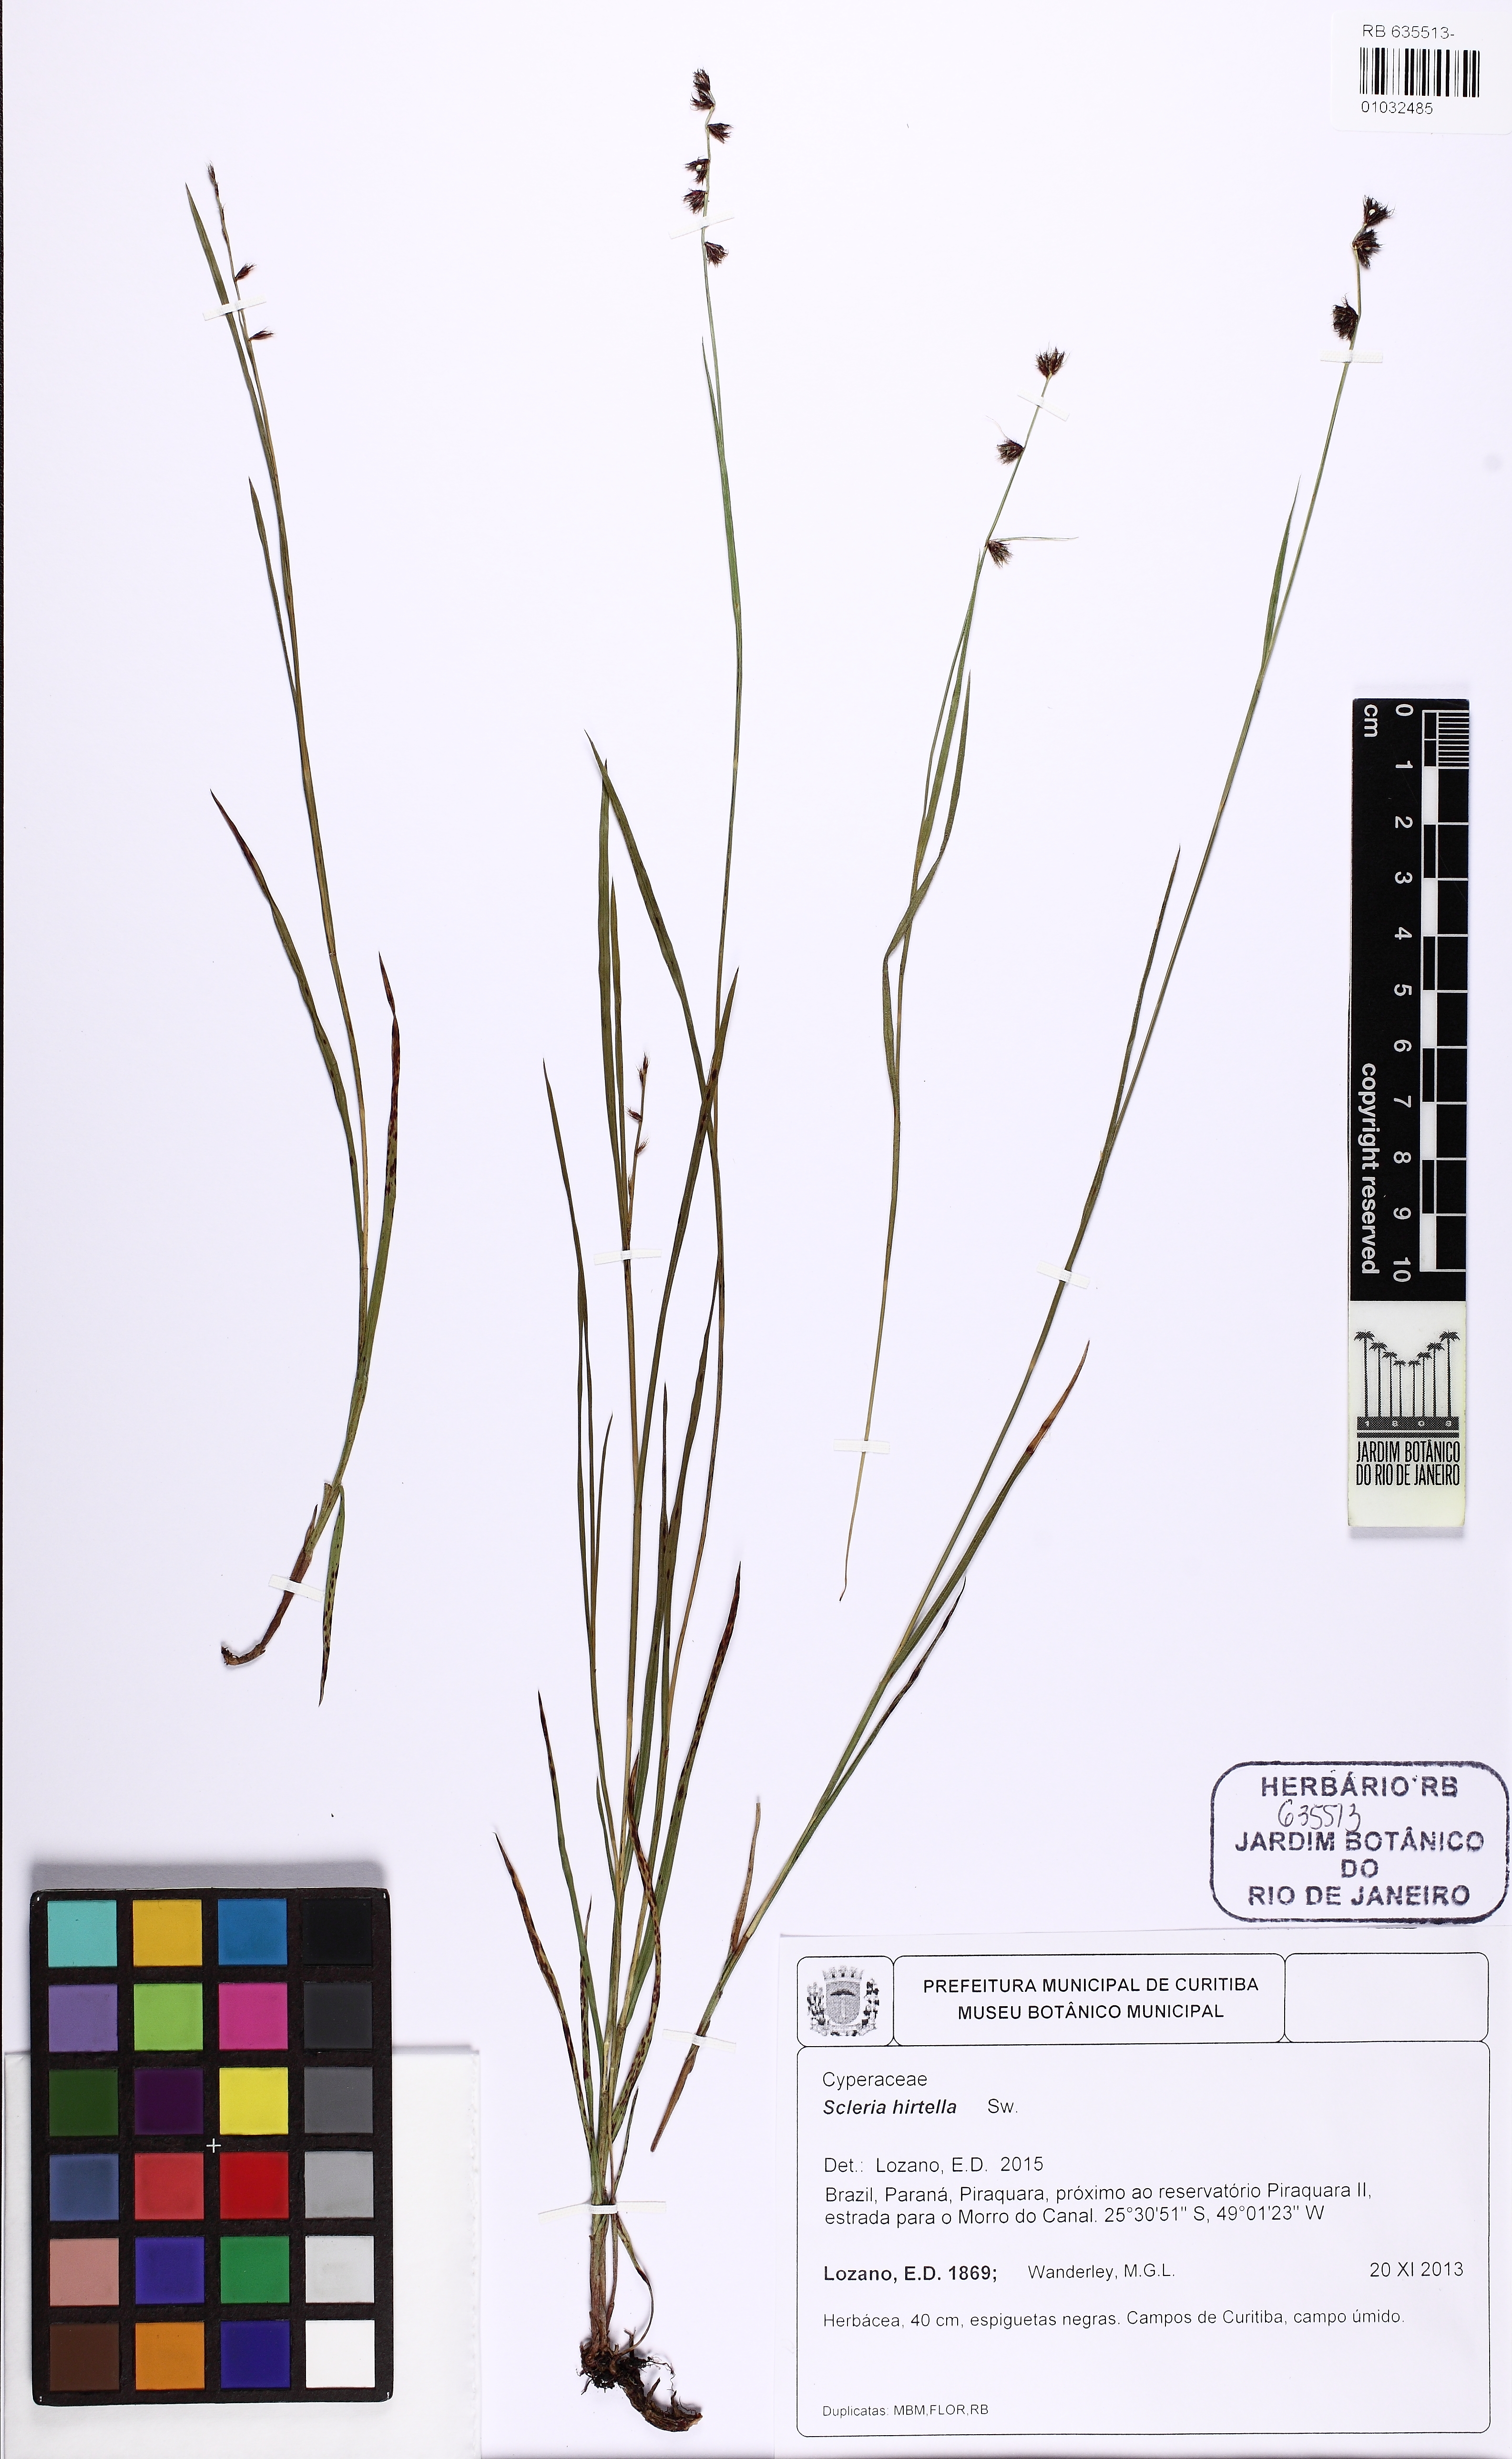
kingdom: Plantae
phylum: Tracheophyta
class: Liliopsida
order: Poales
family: Cyperaceae
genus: Scleria
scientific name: Scleria distans
